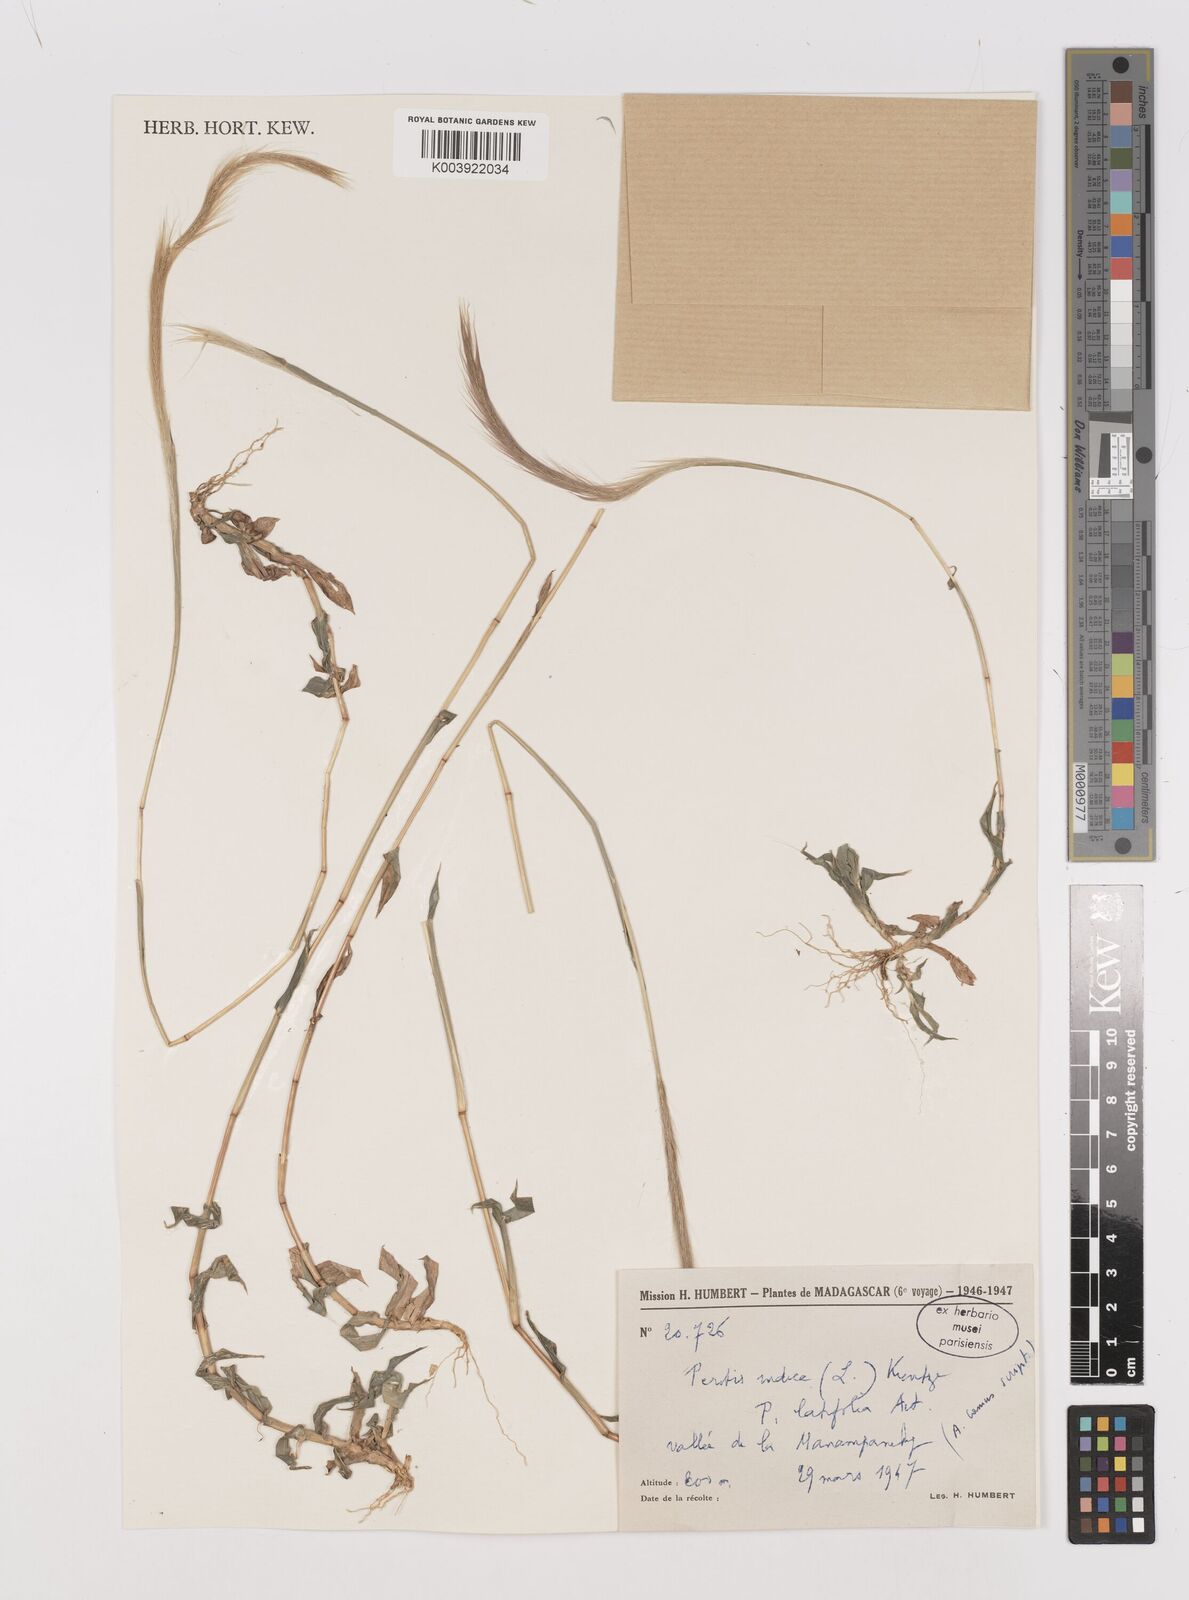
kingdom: Plantae
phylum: Tracheophyta
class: Liliopsida
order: Poales
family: Poaceae
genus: Perotis
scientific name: Perotis patens
